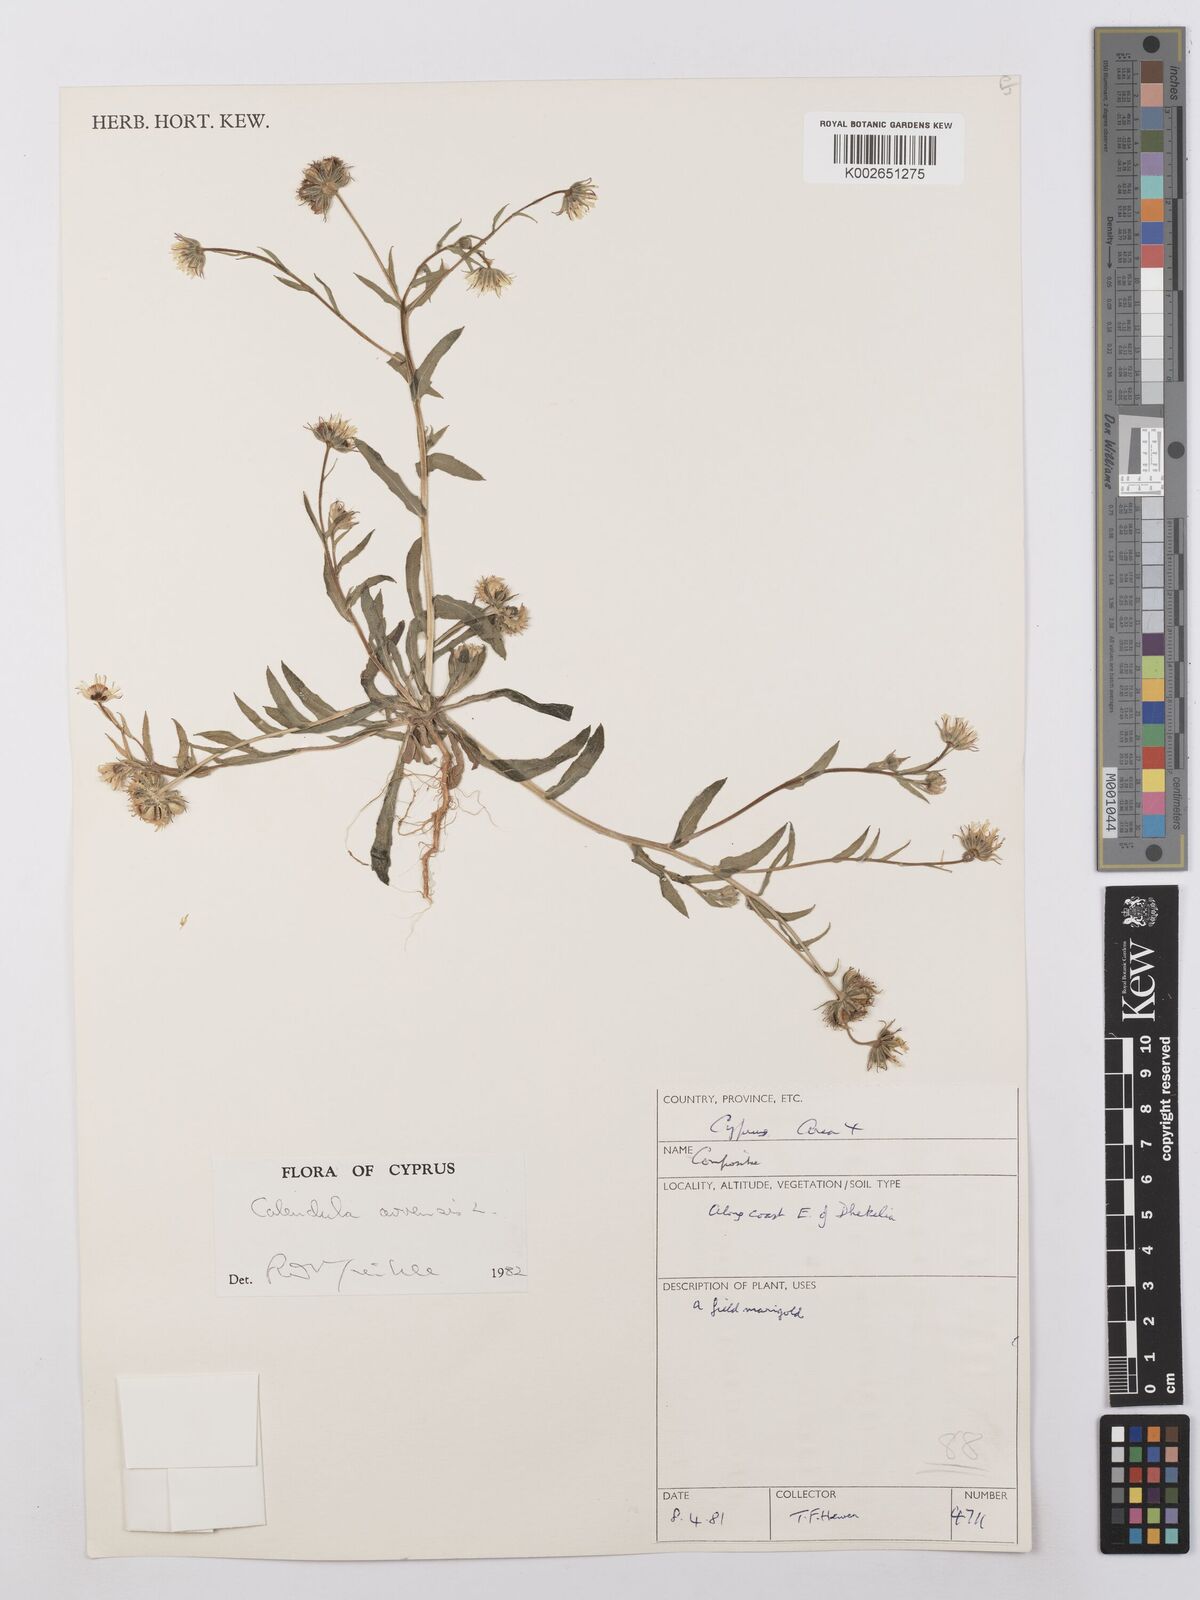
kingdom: Plantae
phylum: Tracheophyta
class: Magnoliopsida
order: Asterales
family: Asteraceae
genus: Calendula
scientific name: Calendula arvensis
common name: Field marigold
